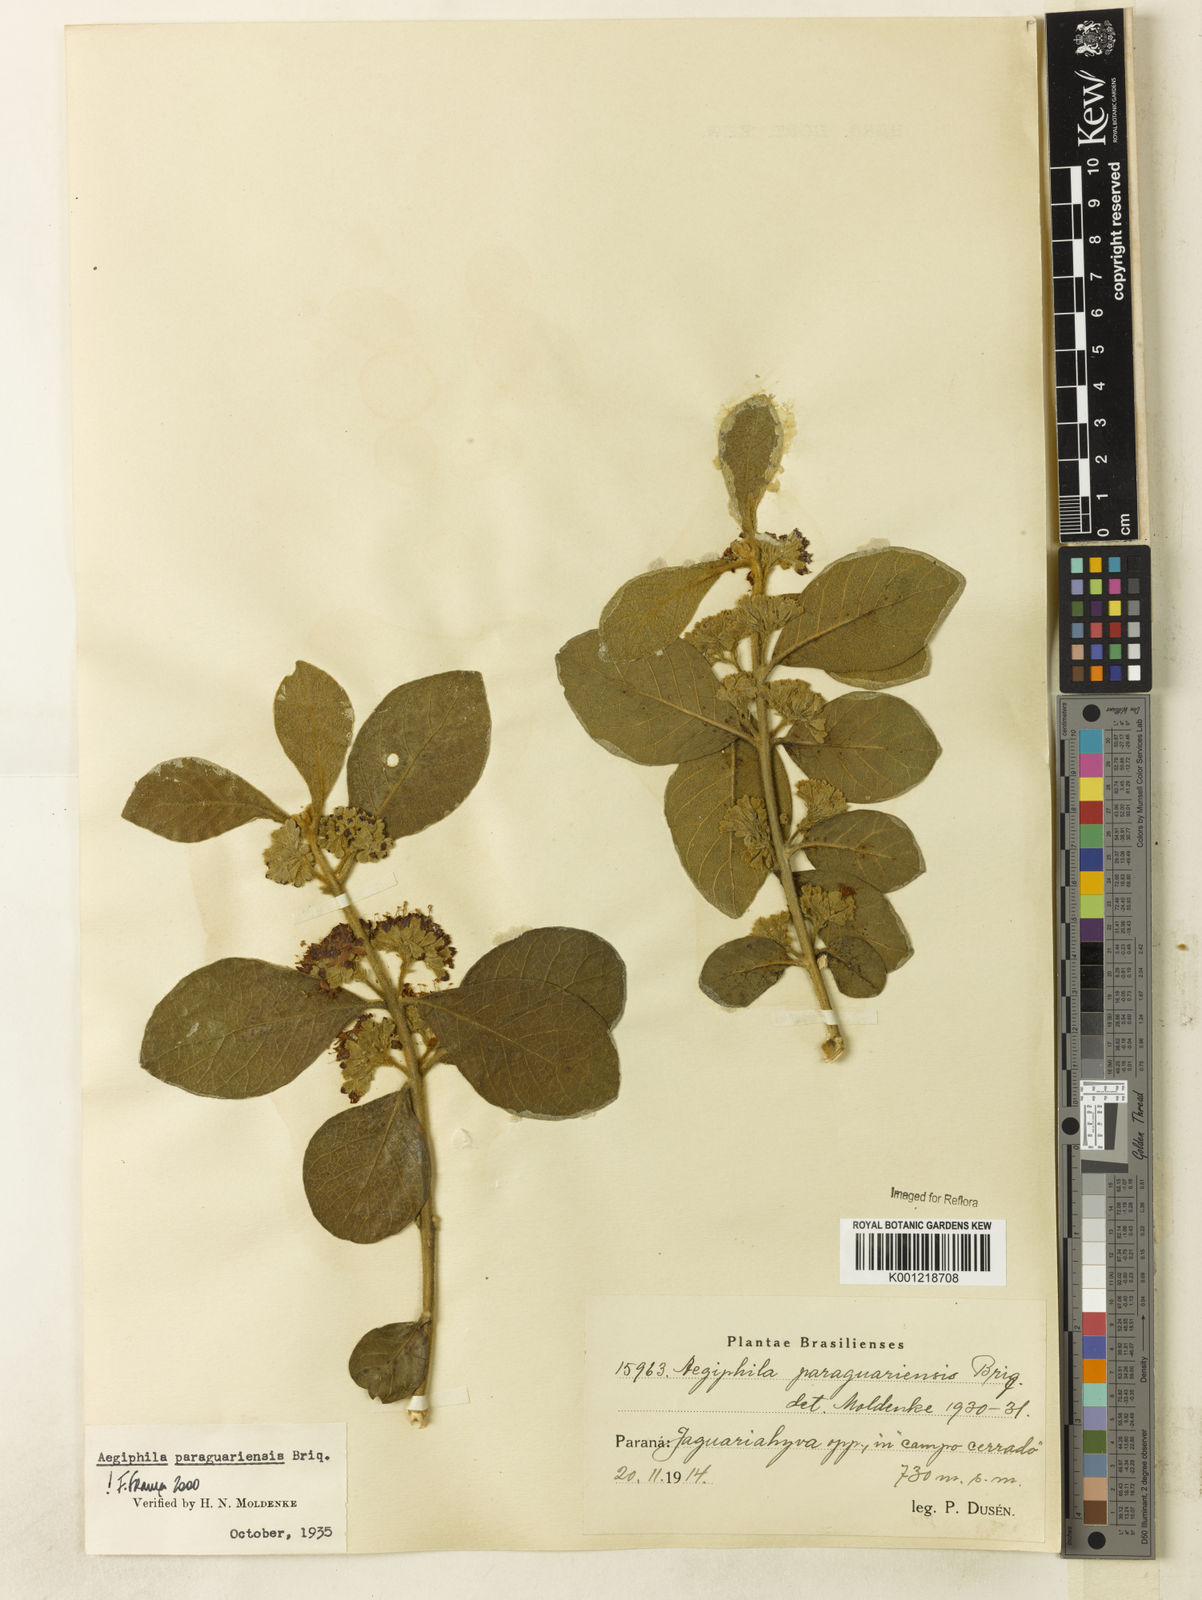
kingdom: Plantae
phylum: Tracheophyta
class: Magnoliopsida
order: Lamiales
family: Lamiaceae
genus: Aegiphila
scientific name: Aegiphila paraguariensis
